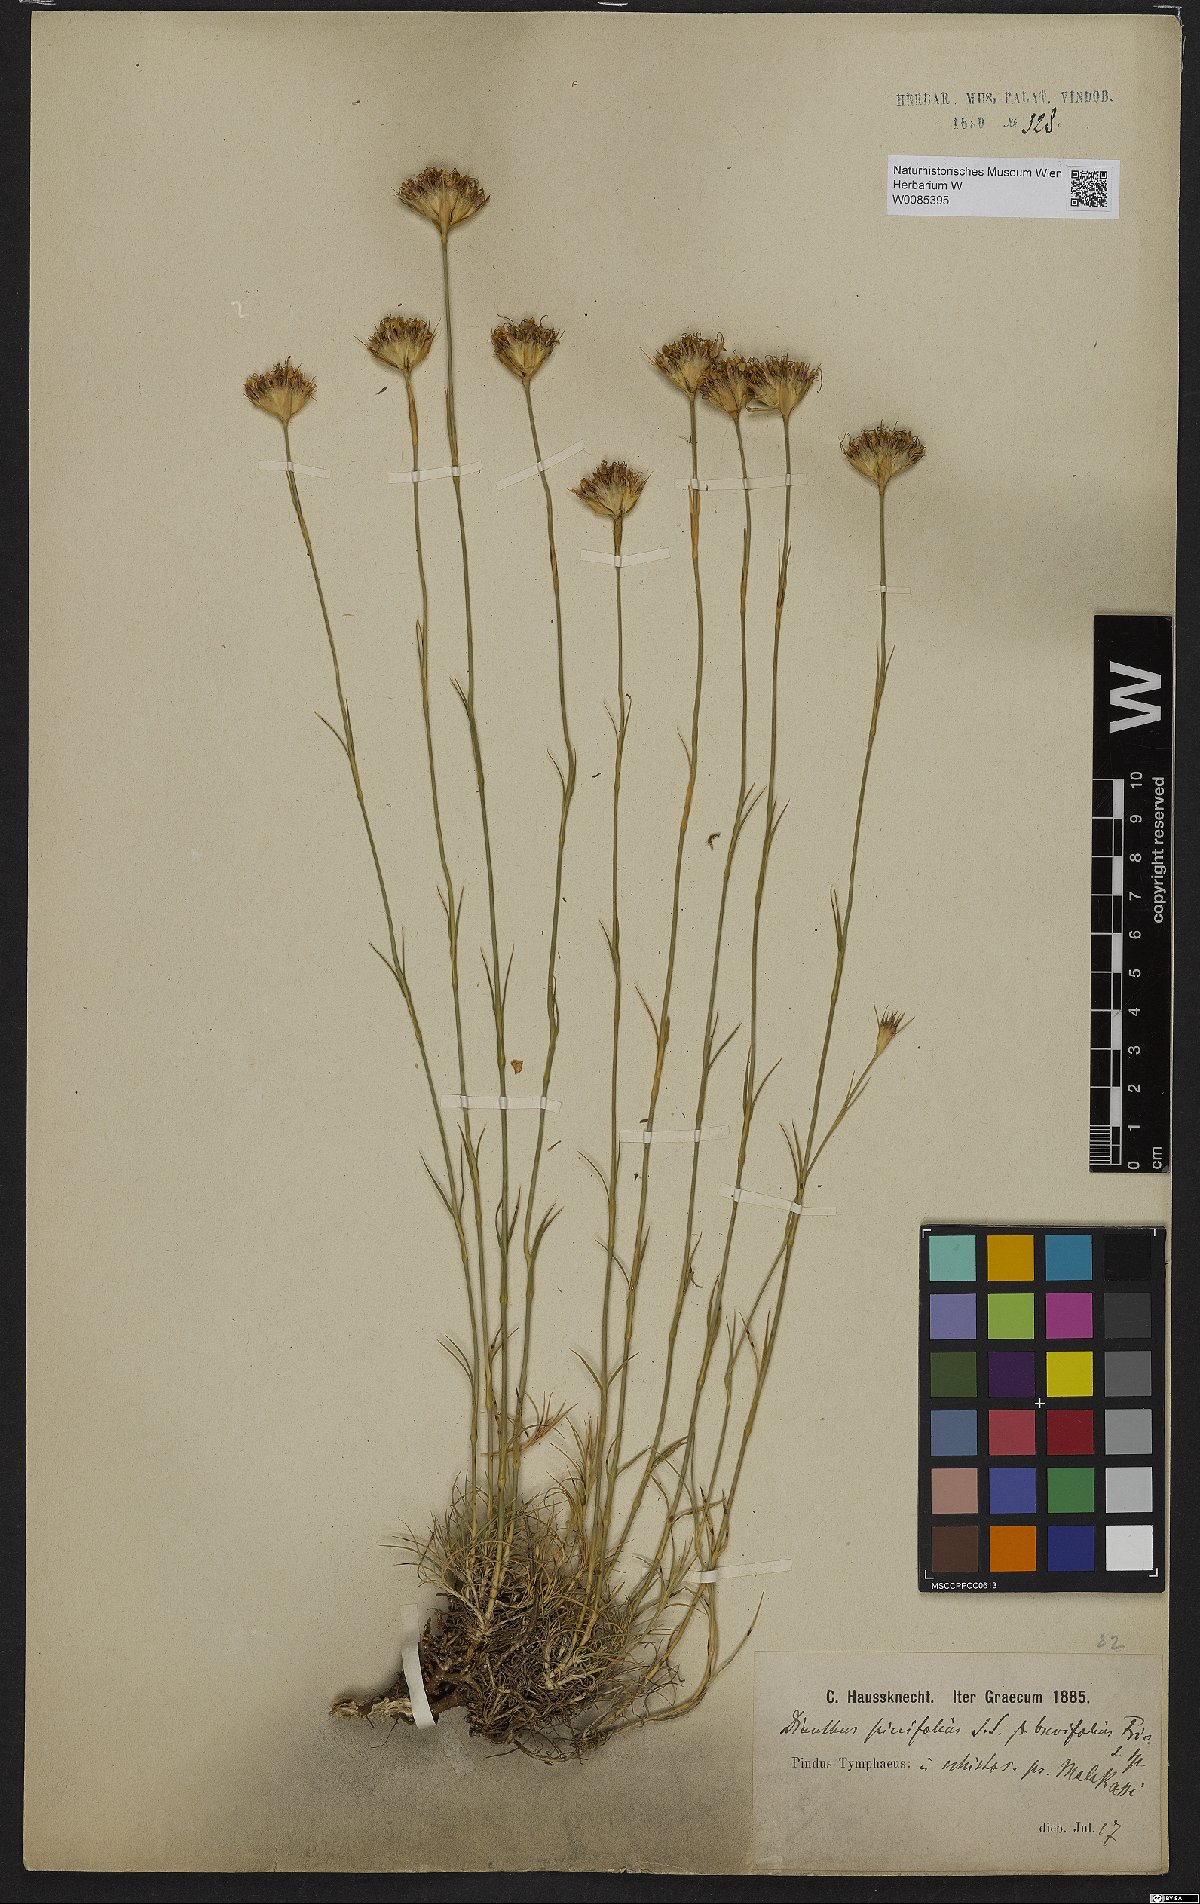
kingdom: Plantae
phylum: Tracheophyta
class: Magnoliopsida
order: Caryophyllales
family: Caryophyllaceae
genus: Dianthus
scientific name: Dianthus pinifolius
